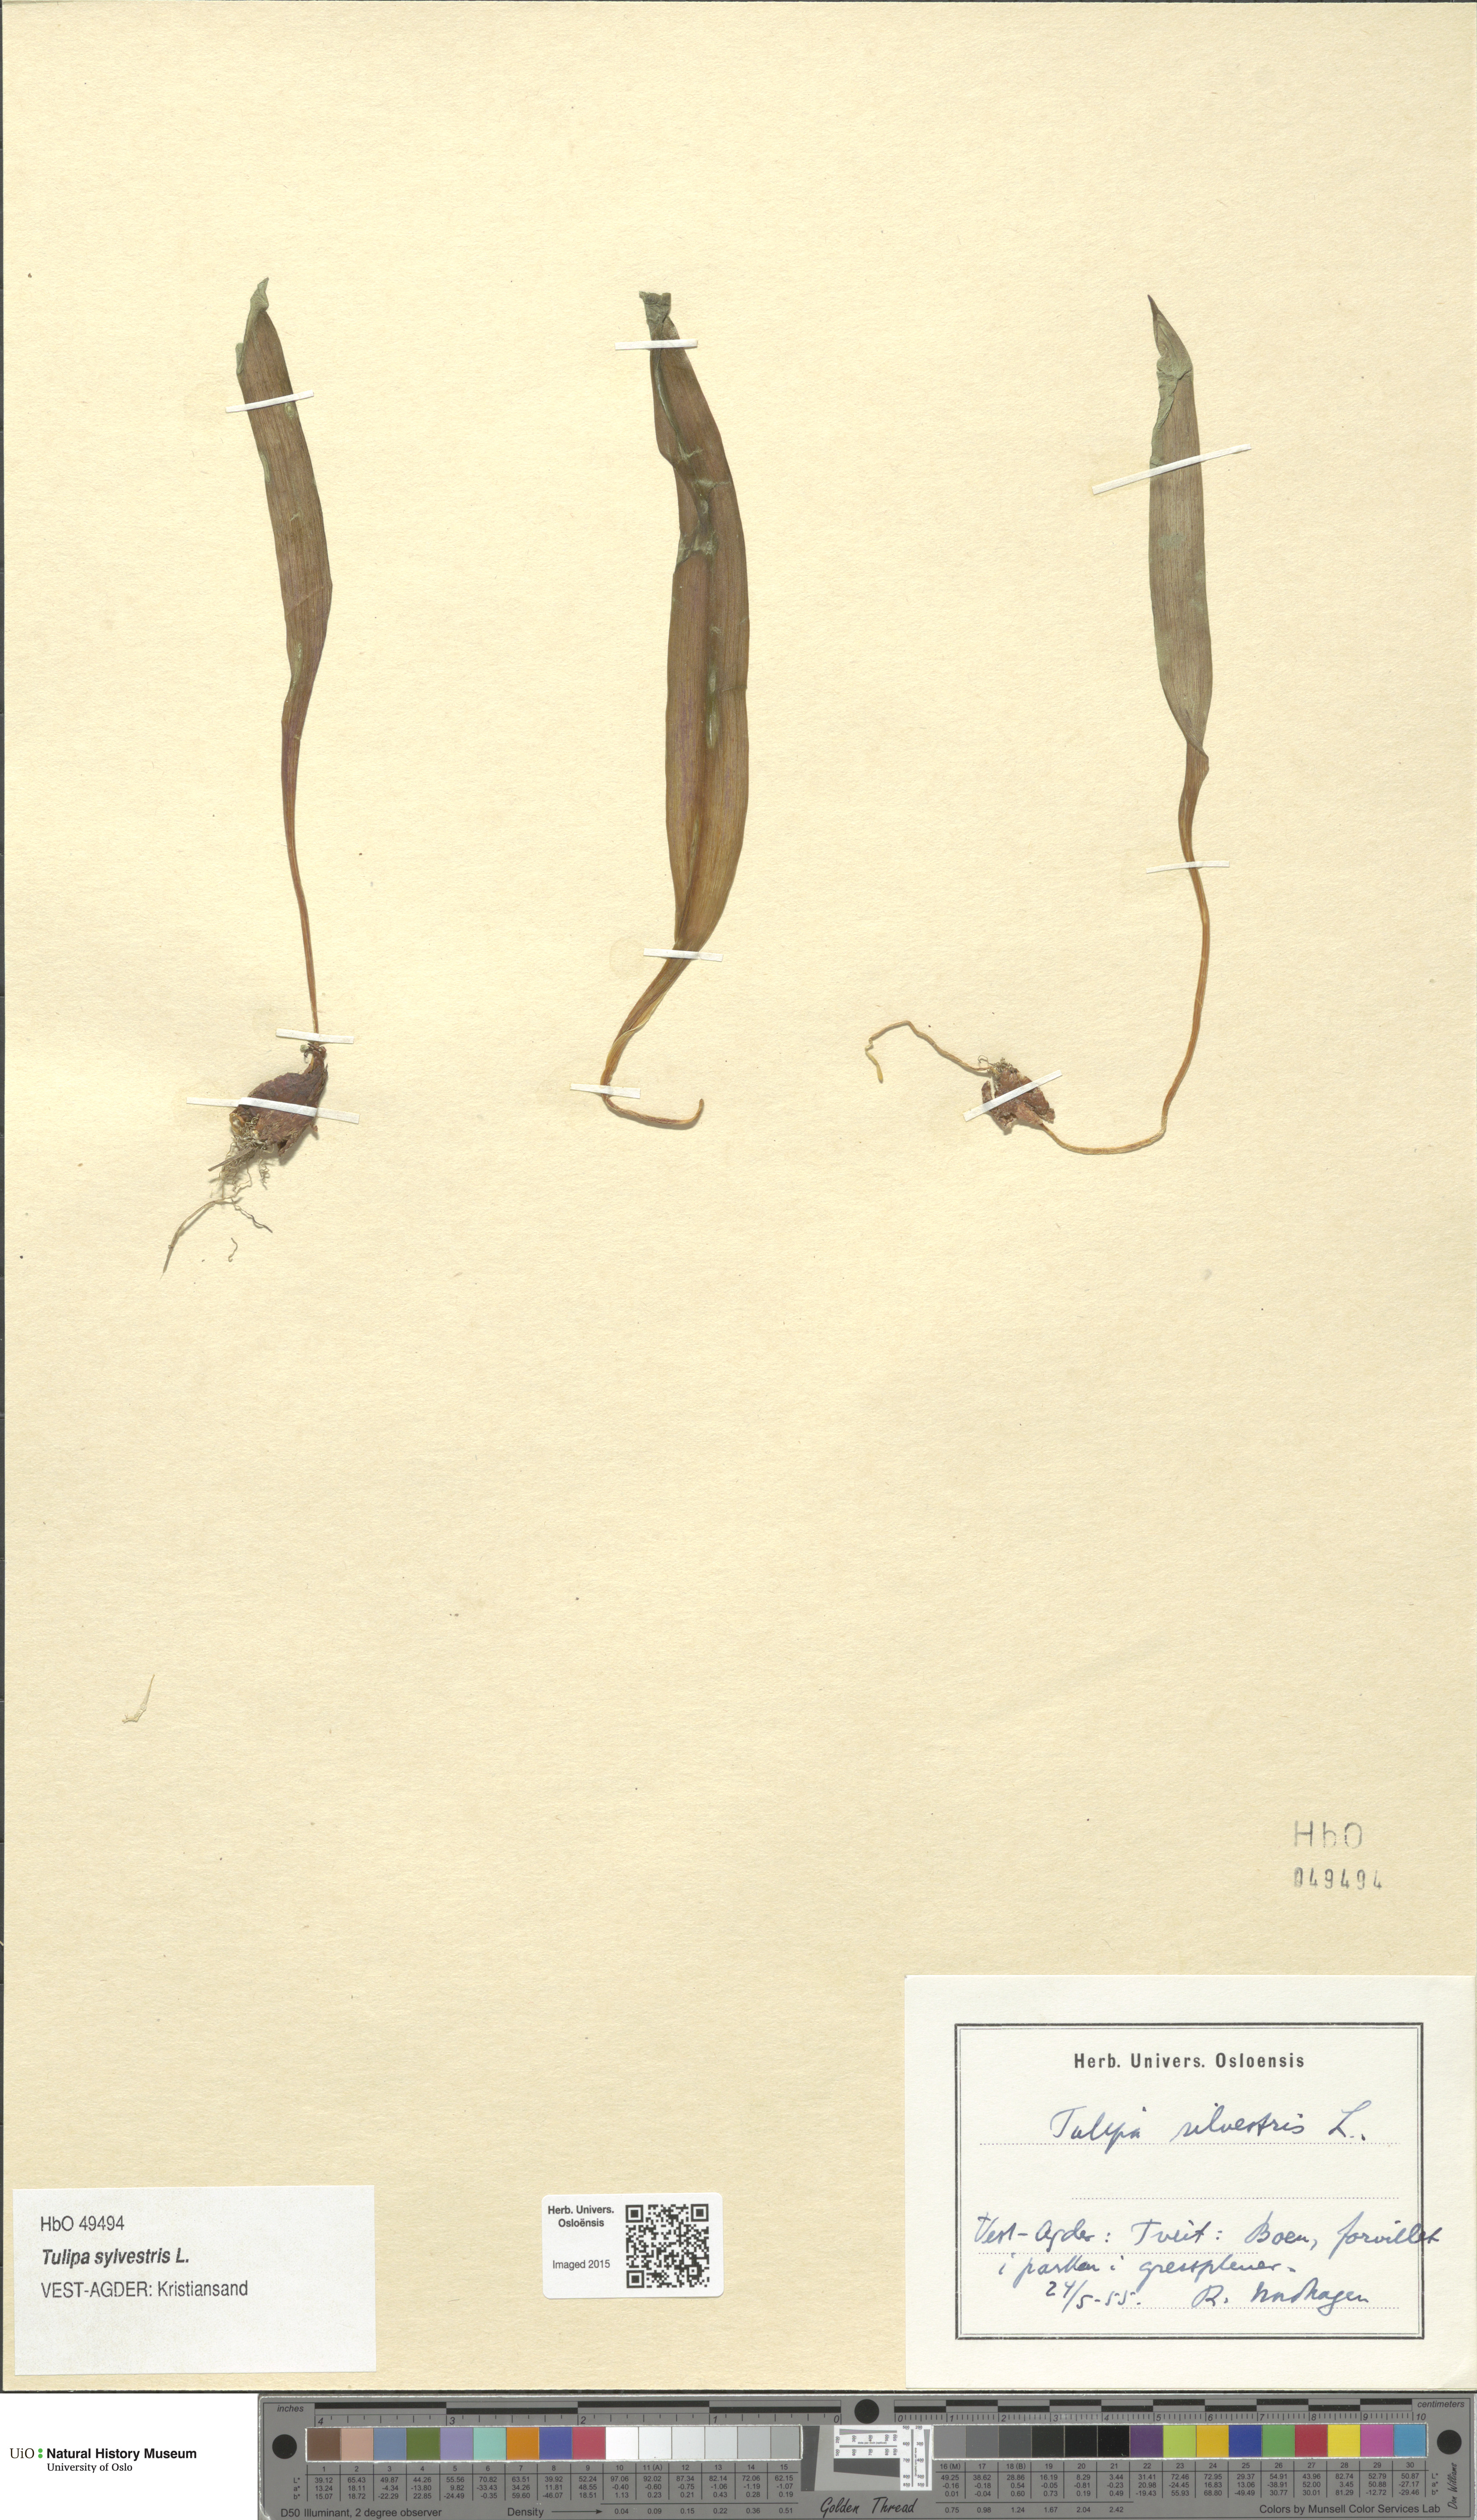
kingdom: Plantae
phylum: Tracheophyta
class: Liliopsida
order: Liliales
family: Liliaceae
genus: Tulipa
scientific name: Tulipa sylvestris
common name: Wild tulip
